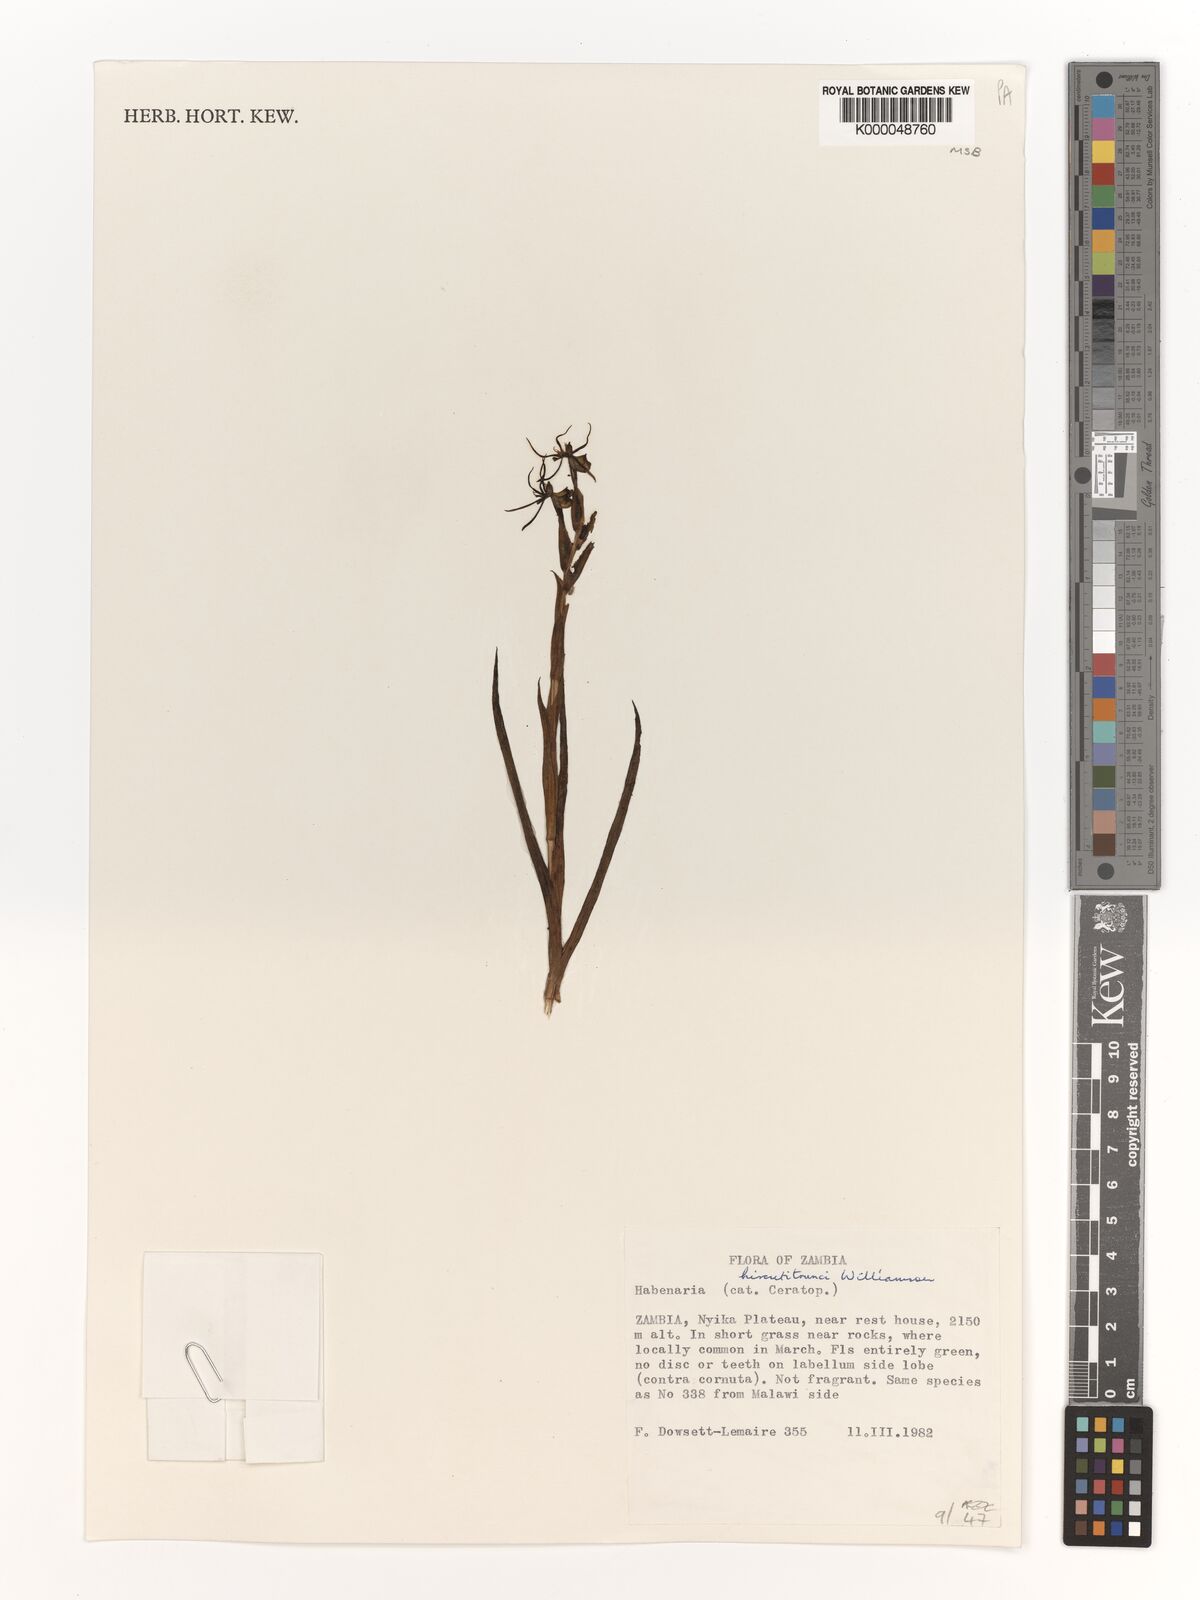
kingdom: Plantae
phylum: Tracheophyta
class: Liliopsida
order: Asparagales
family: Orchidaceae
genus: Habenaria
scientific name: Habenaria
